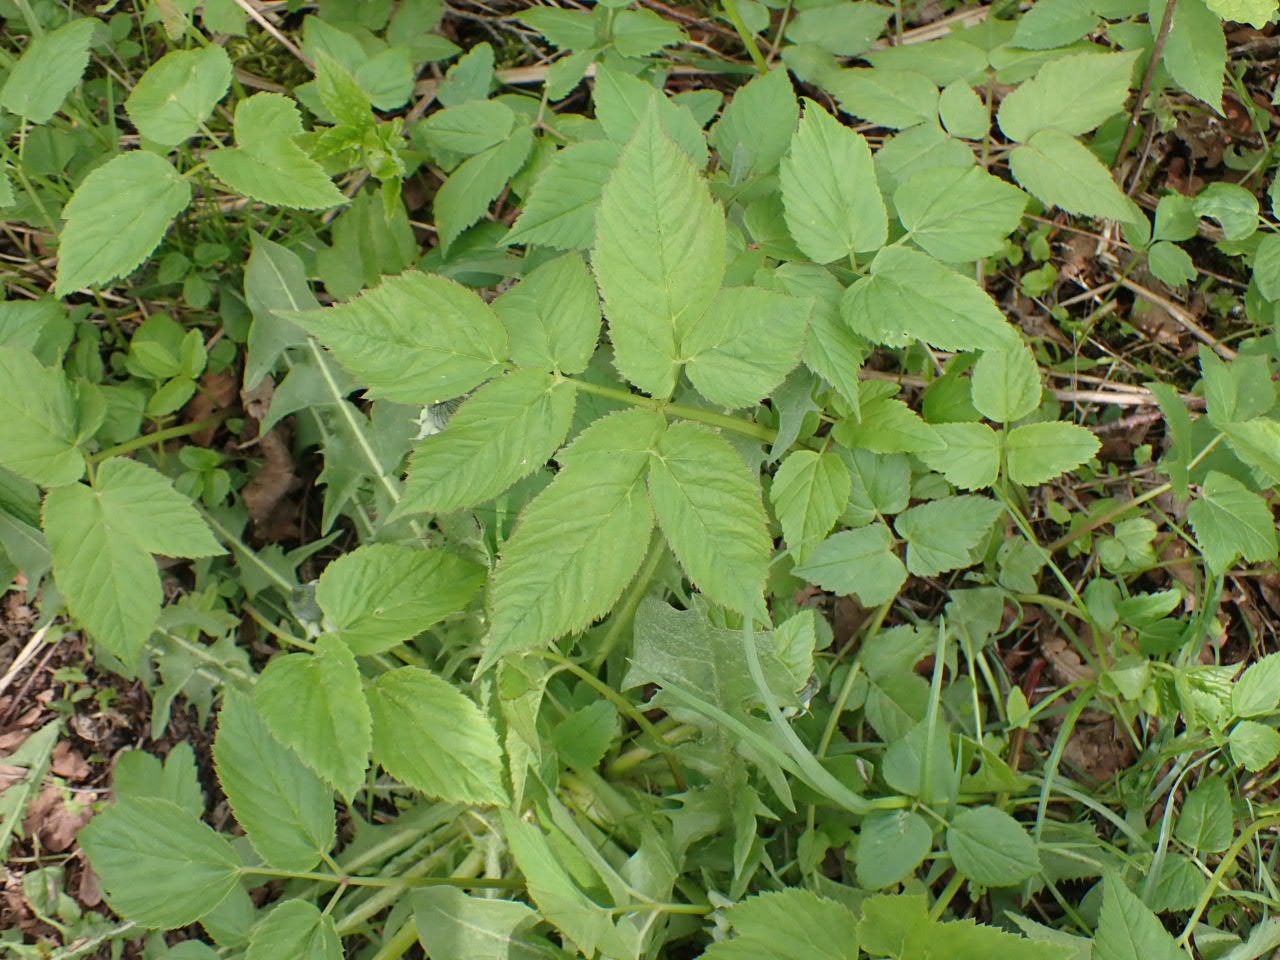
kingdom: Plantae
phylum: Tracheophyta
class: Magnoliopsida
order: Apiales
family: Apiaceae
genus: Aegopodium
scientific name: Aegopodium podagraria
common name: Skvalderkål
